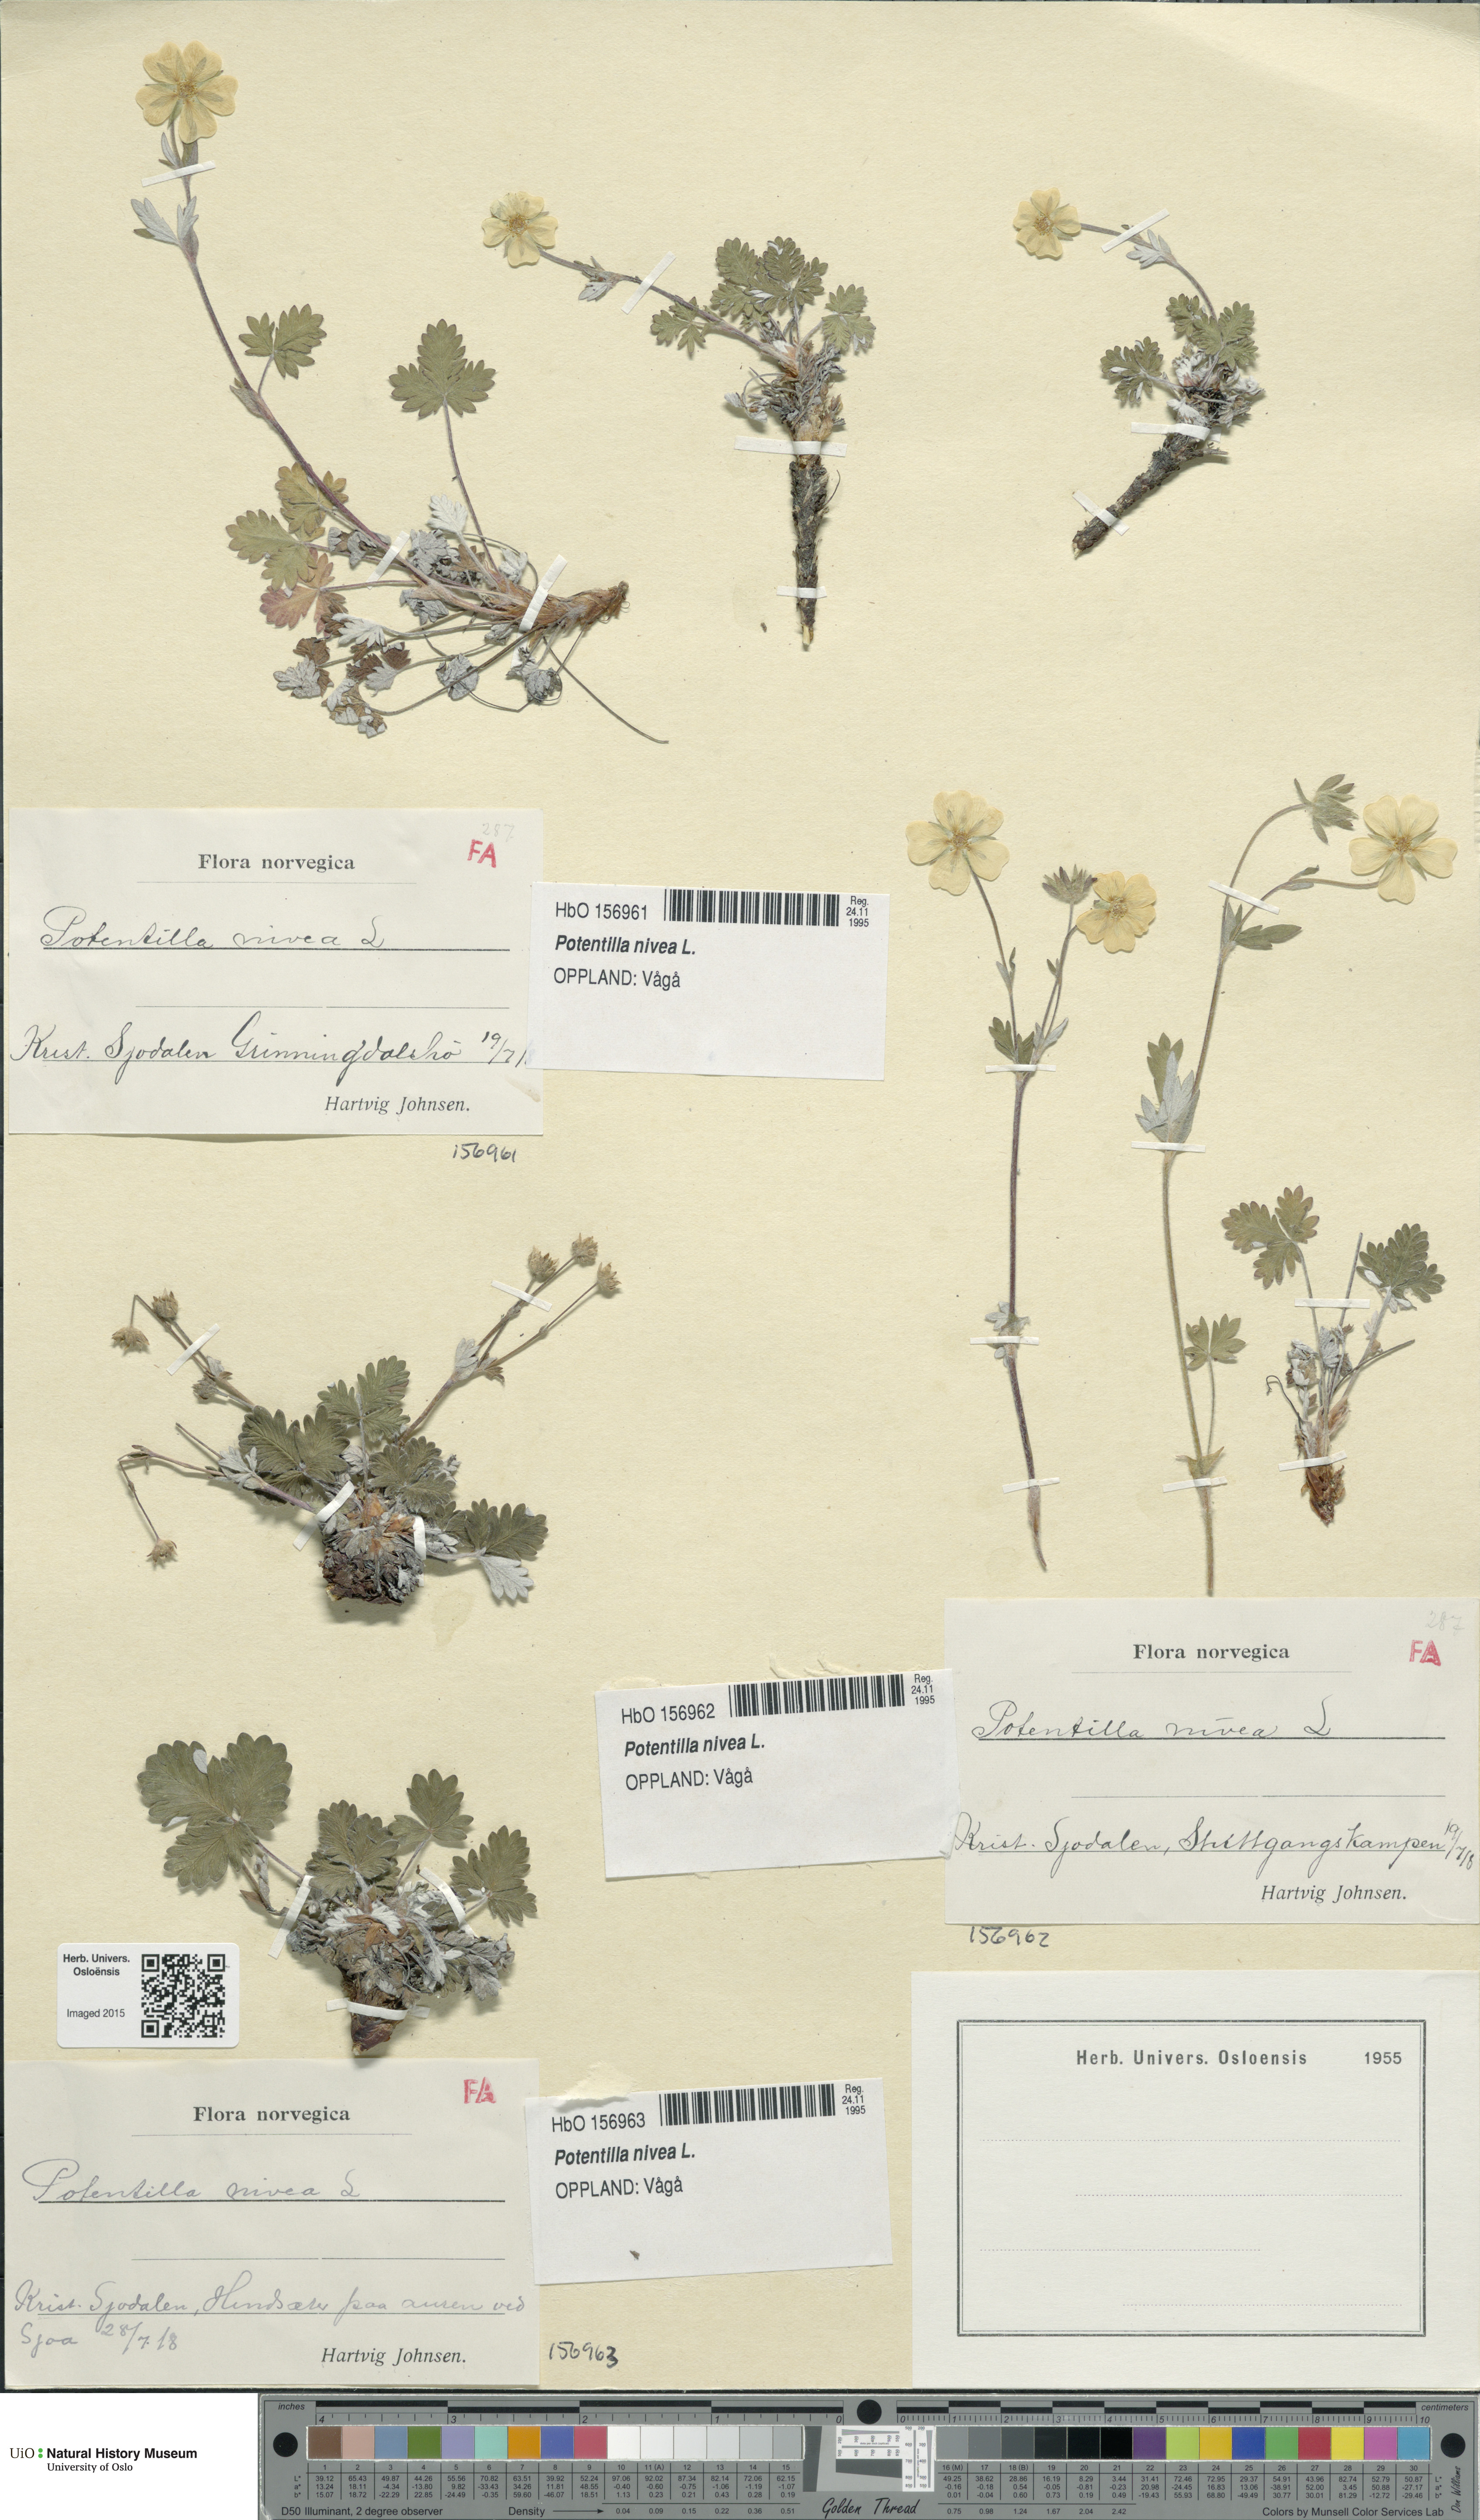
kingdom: Plantae
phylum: Tracheophyta
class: Magnoliopsida
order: Rosales
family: Rosaceae
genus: Potentilla
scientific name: Potentilla arenosa
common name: Bluff cinquefoil
